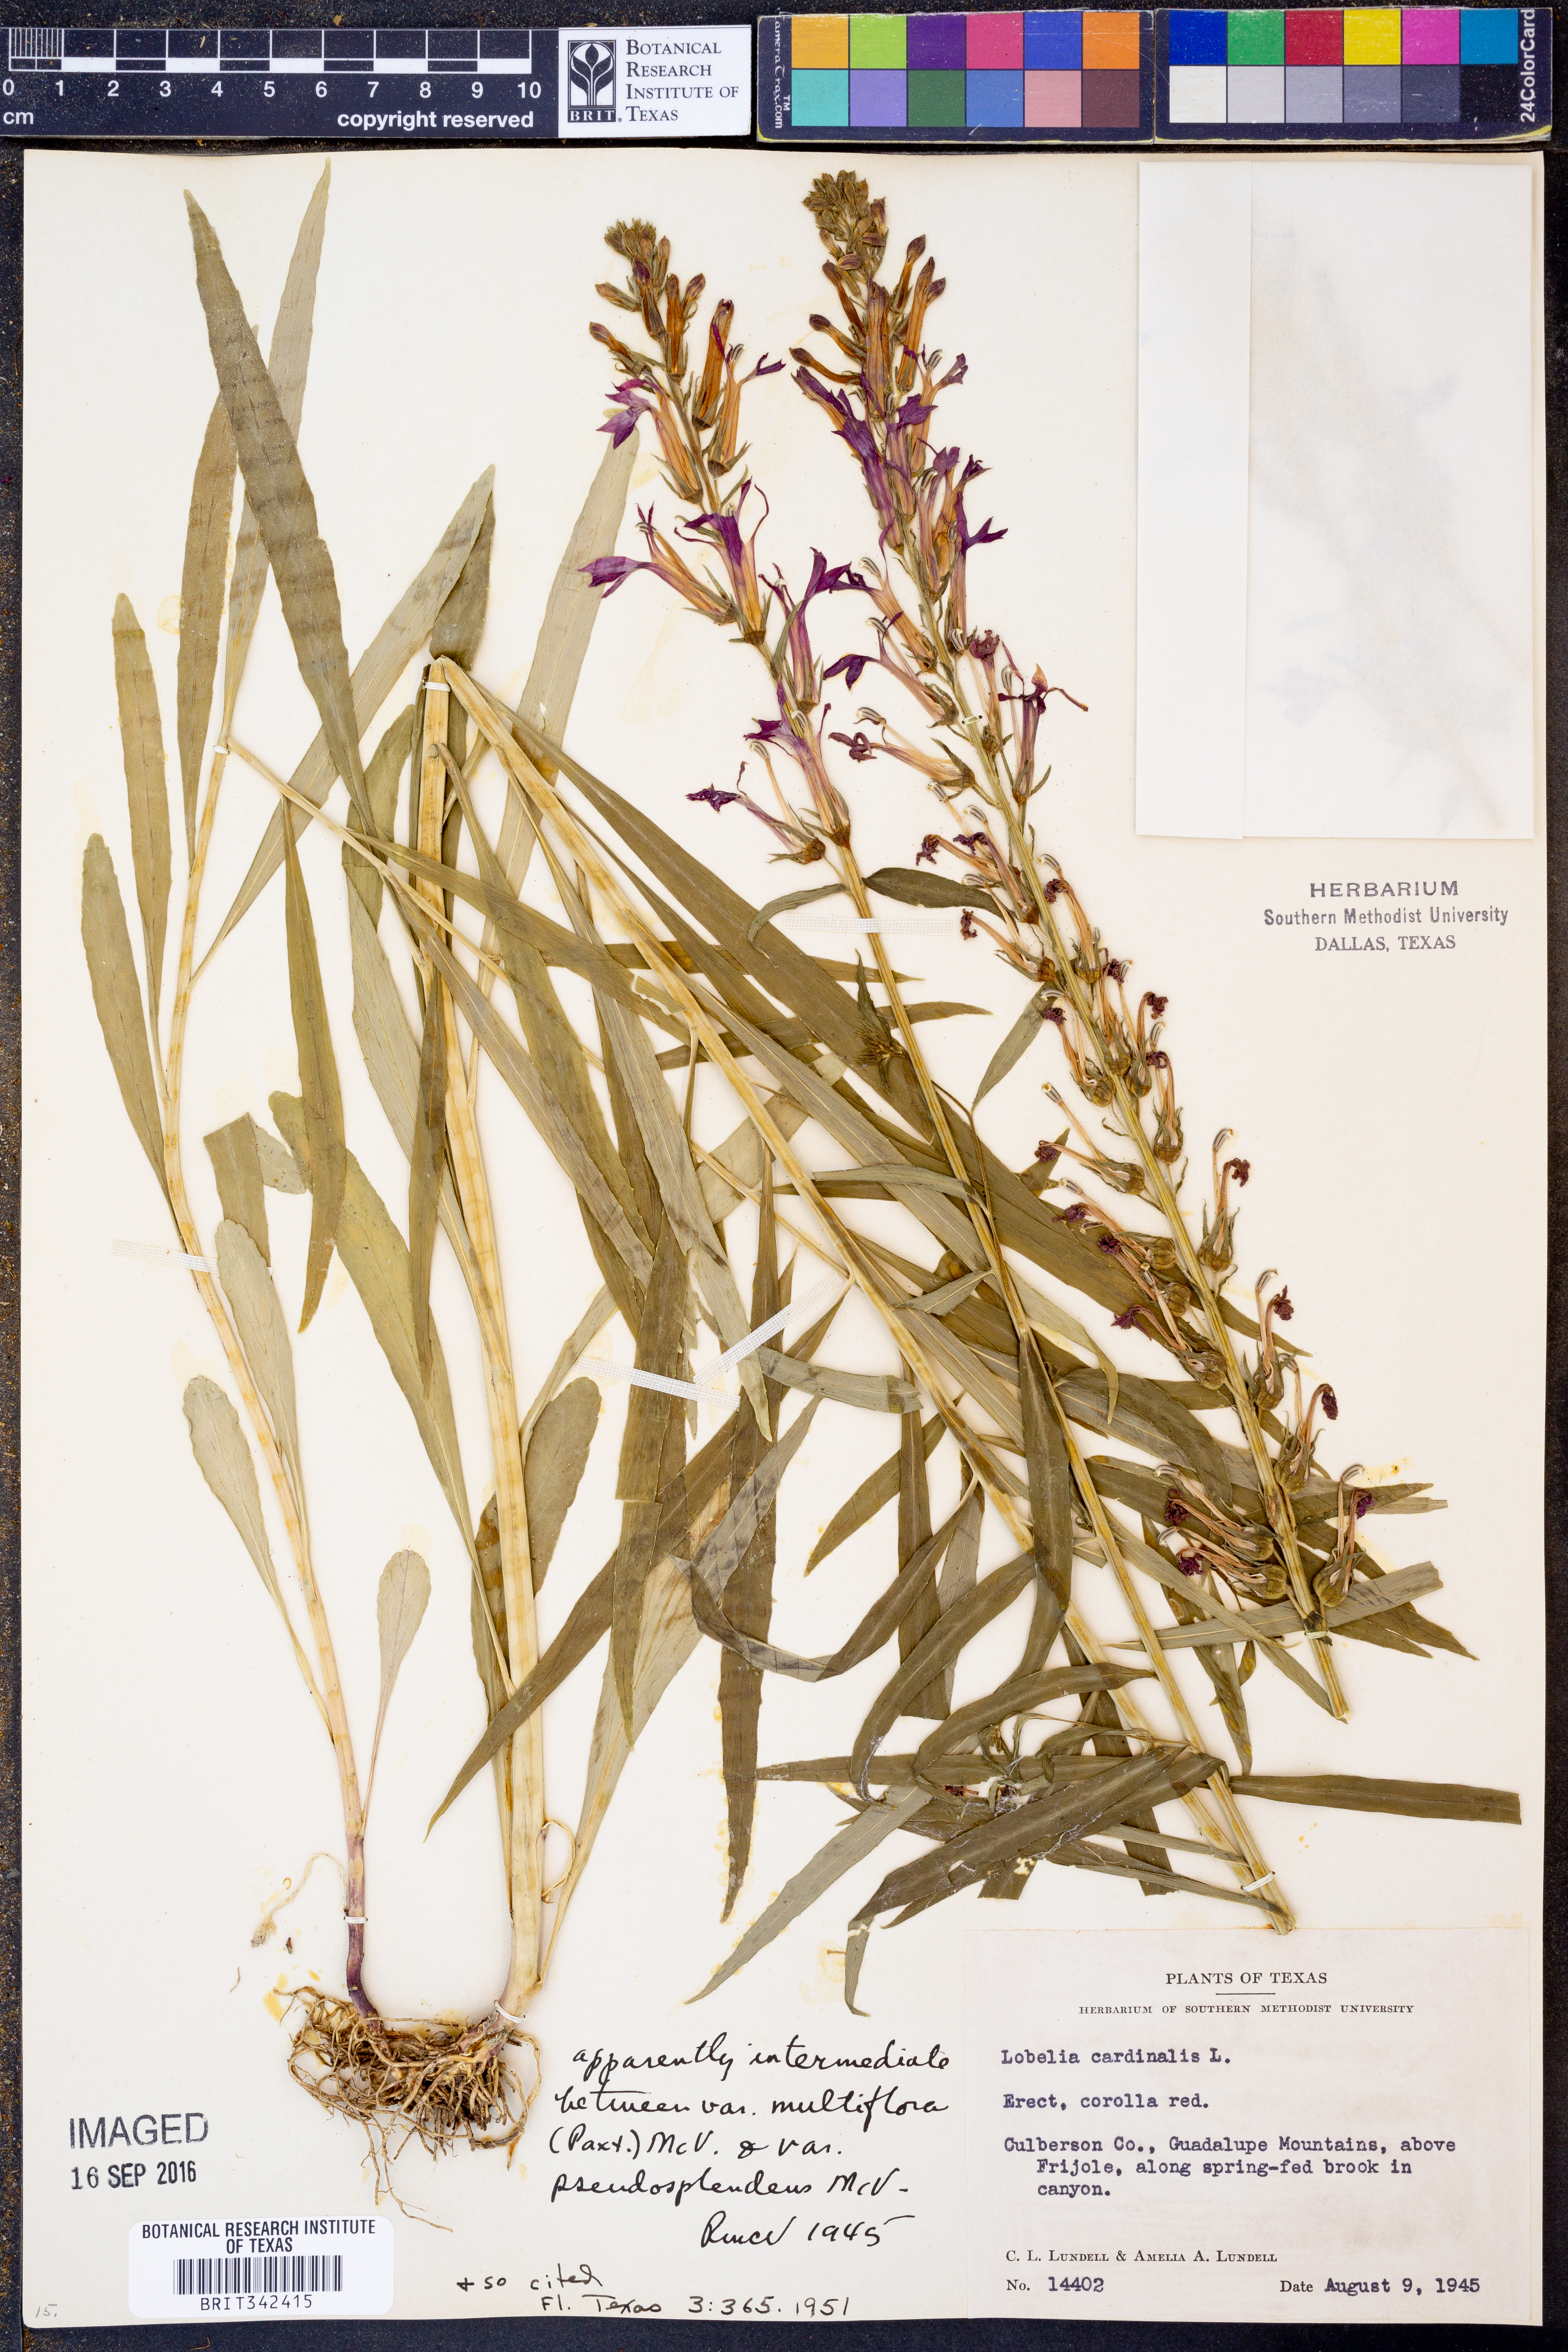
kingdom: Plantae
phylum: Tracheophyta
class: Magnoliopsida
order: Asterales
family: Campanulaceae
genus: Lobelia
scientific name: Lobelia cardinalis
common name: Cardinal flower
